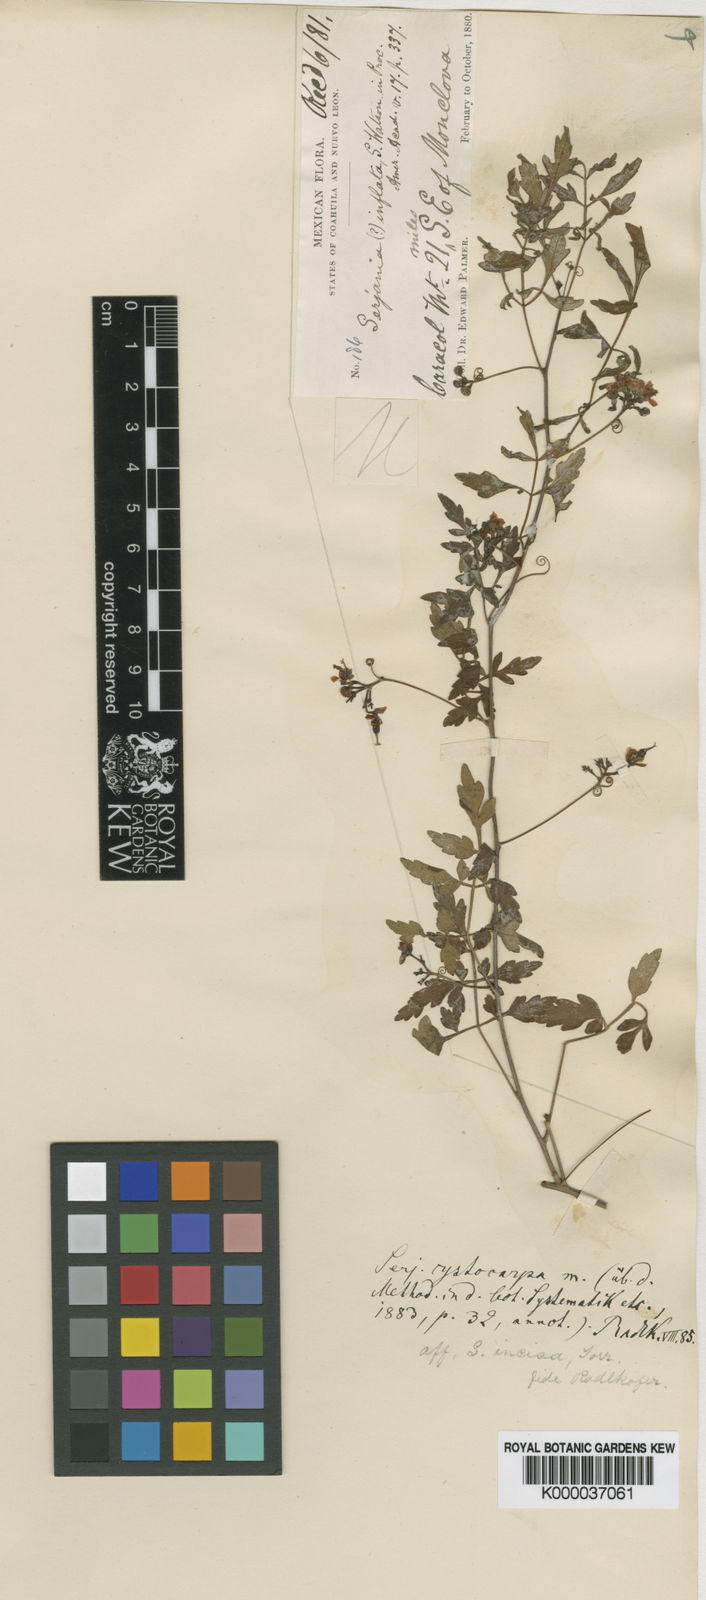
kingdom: Plantae
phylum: Tracheophyta
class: Magnoliopsida
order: Sapindales
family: Sapindaceae
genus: Serjania
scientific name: Serjania cystocarpa
